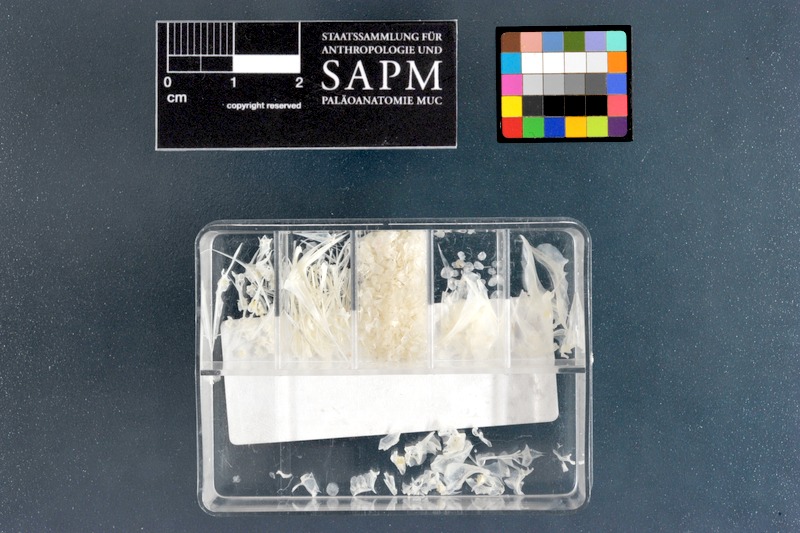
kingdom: Animalia
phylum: Chordata
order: Perciformes
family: Pomacanthidae
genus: Apolemichthys
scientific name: Apolemichthys xanthotis
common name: Red sea angelfish
